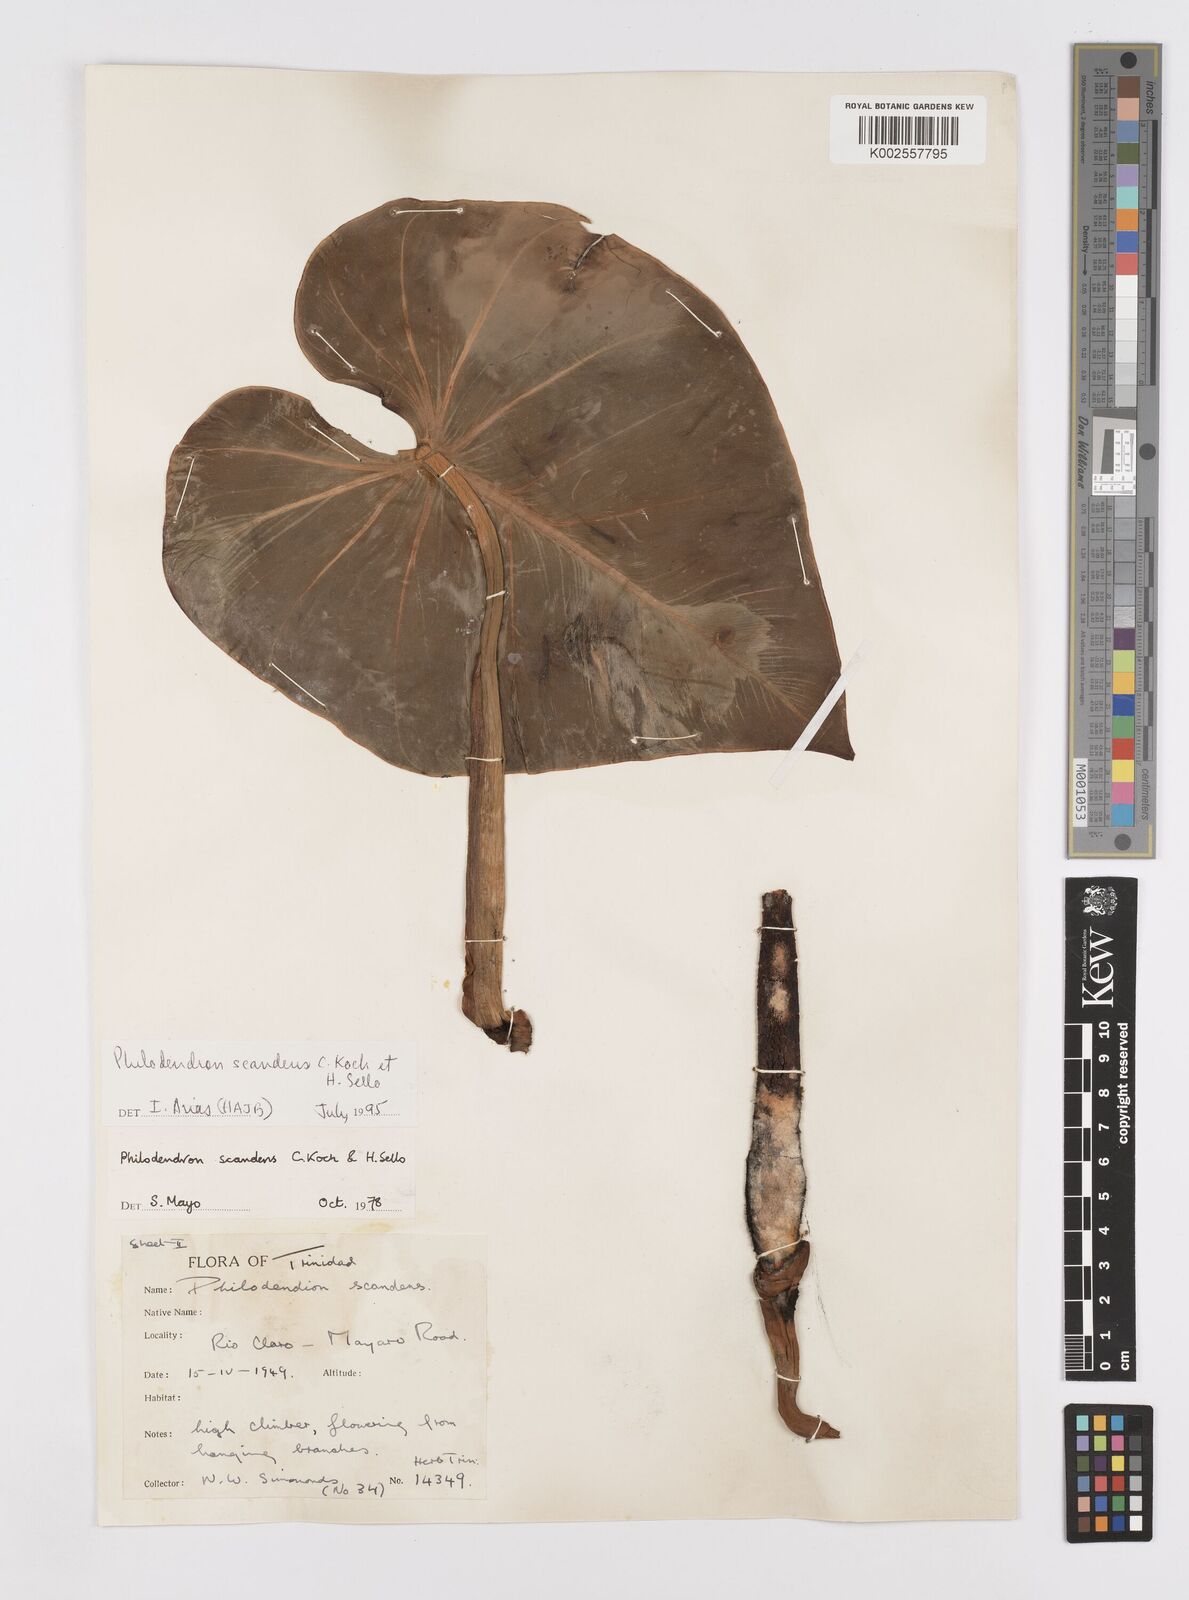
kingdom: Plantae
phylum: Tracheophyta
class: Liliopsida
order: Alismatales
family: Araceae
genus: Philodendron
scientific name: Philodendron hederaceum
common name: Vilevine
